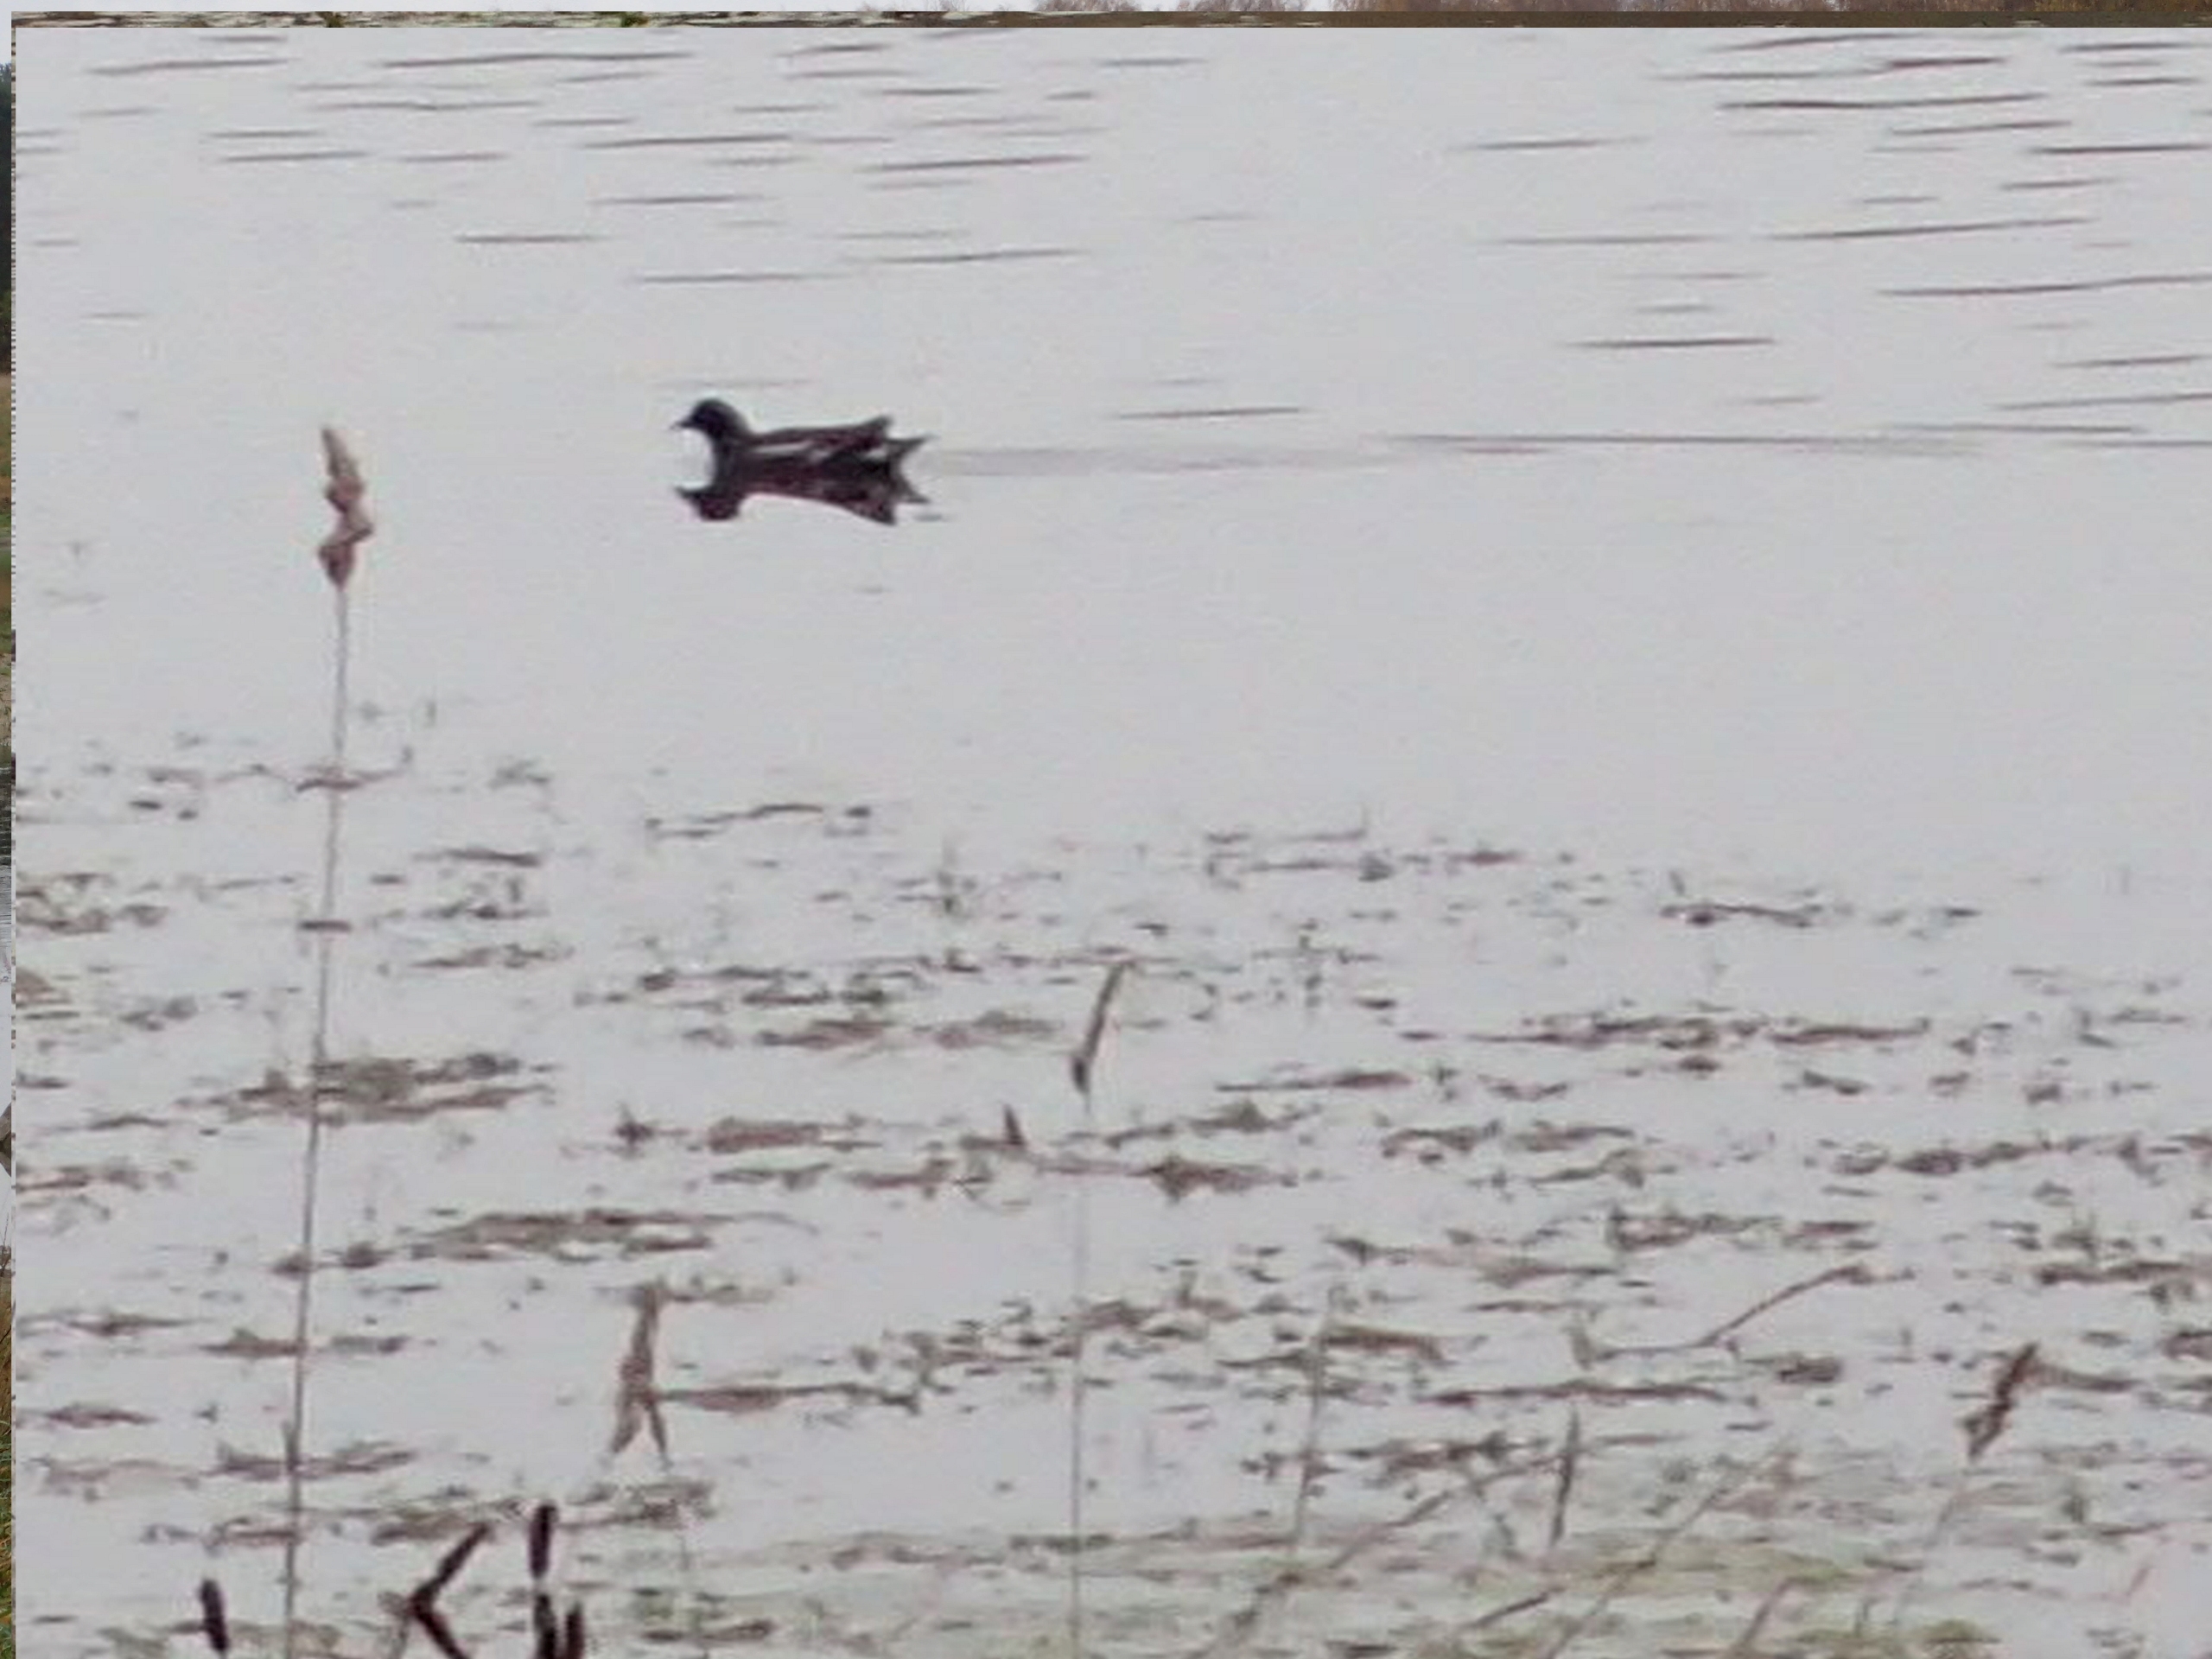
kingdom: Animalia
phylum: Chordata
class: Aves
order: Gruiformes
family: Rallidae
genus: Gallinula
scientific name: Gallinula chloropus
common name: Grønbenet rørhøne
